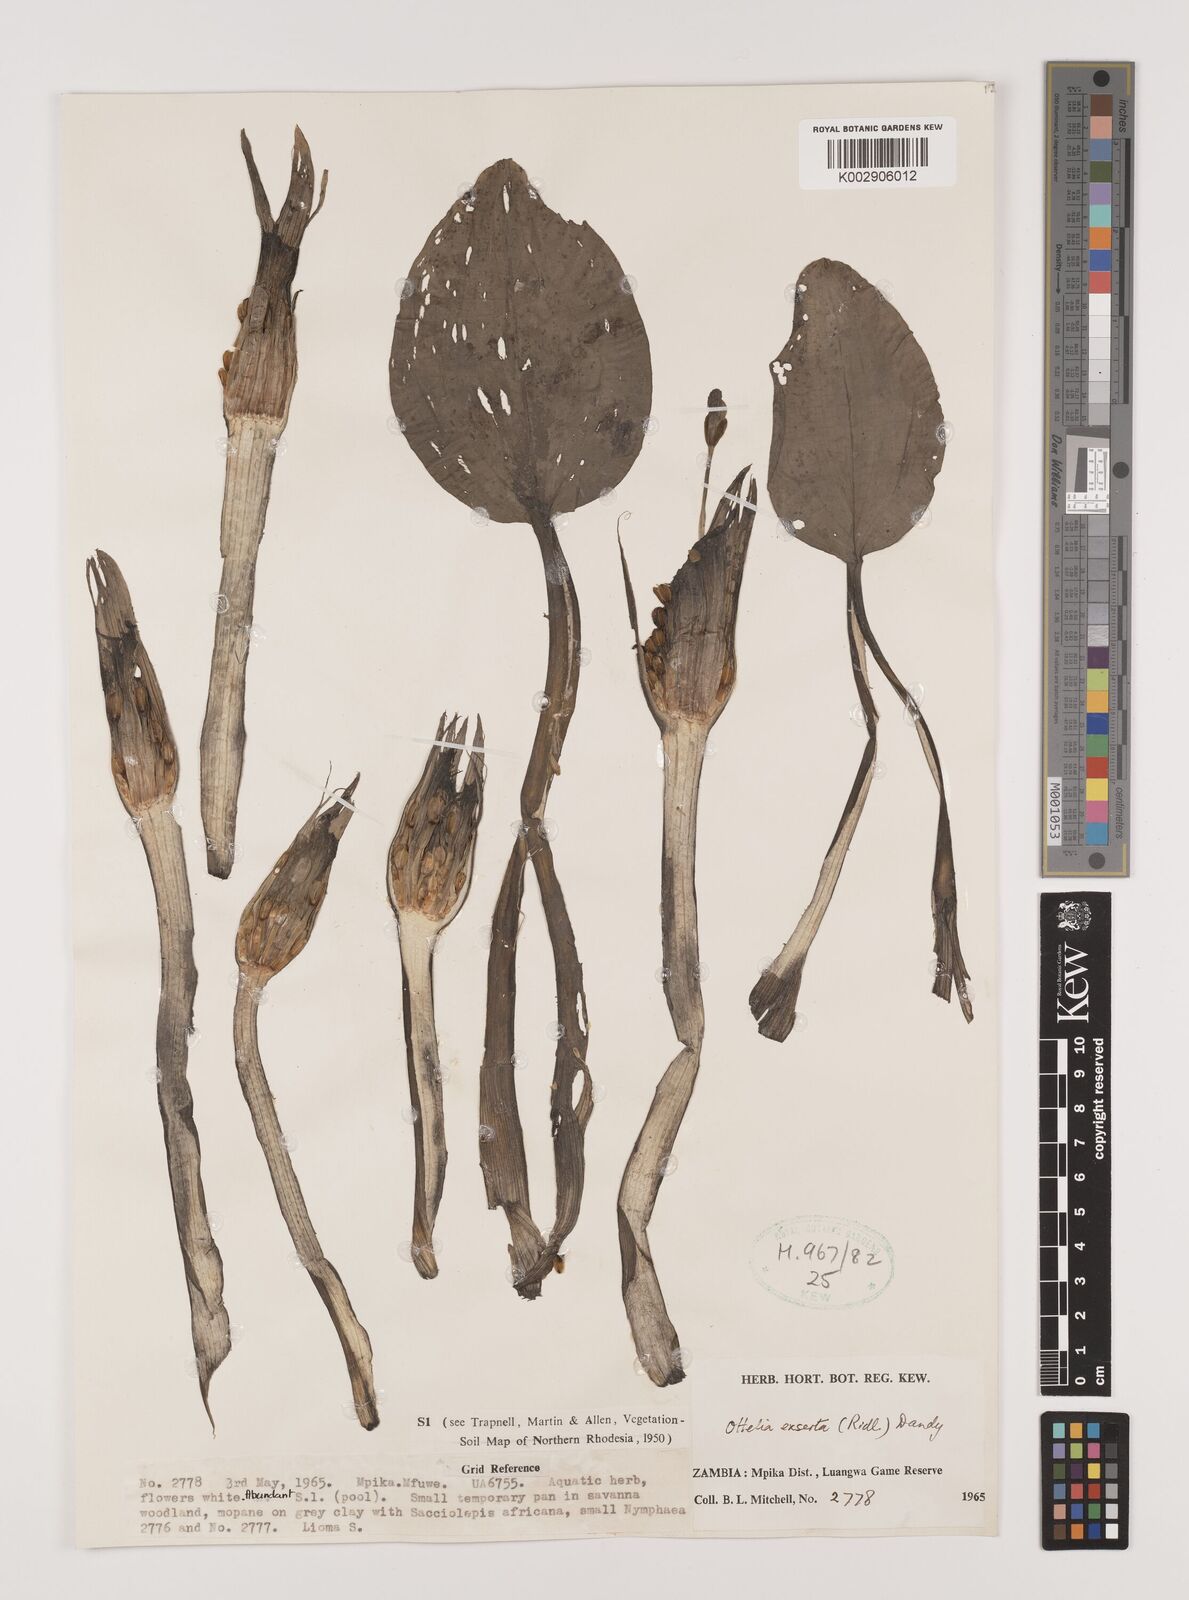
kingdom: Plantae
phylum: Tracheophyta
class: Liliopsida
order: Alismatales
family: Hydrocharitaceae
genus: Ottelia
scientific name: Ottelia exserta
